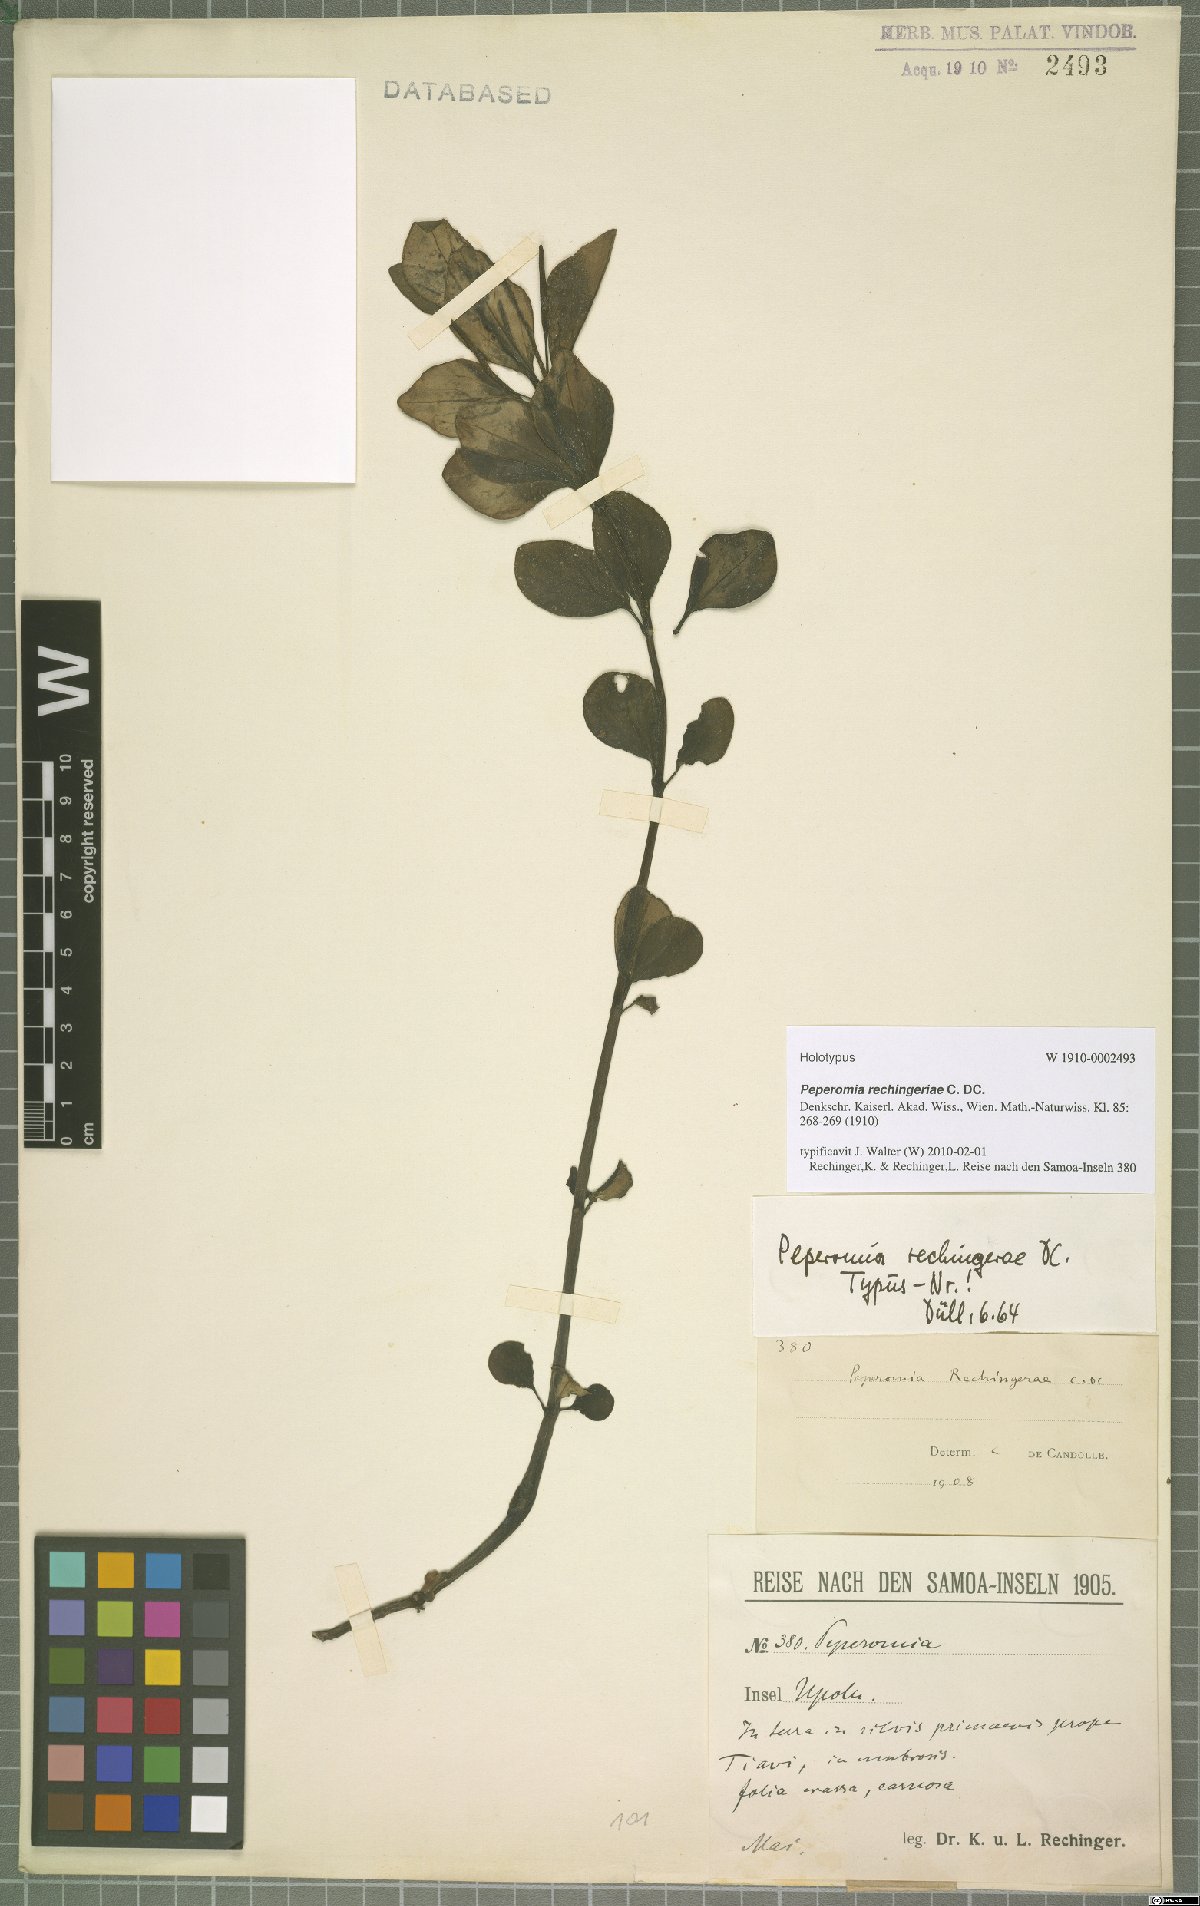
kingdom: Plantae
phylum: Tracheophyta
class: Magnoliopsida
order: Piperales
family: Piperaceae
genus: Peperomia
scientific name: Peperomia rechingeriae
